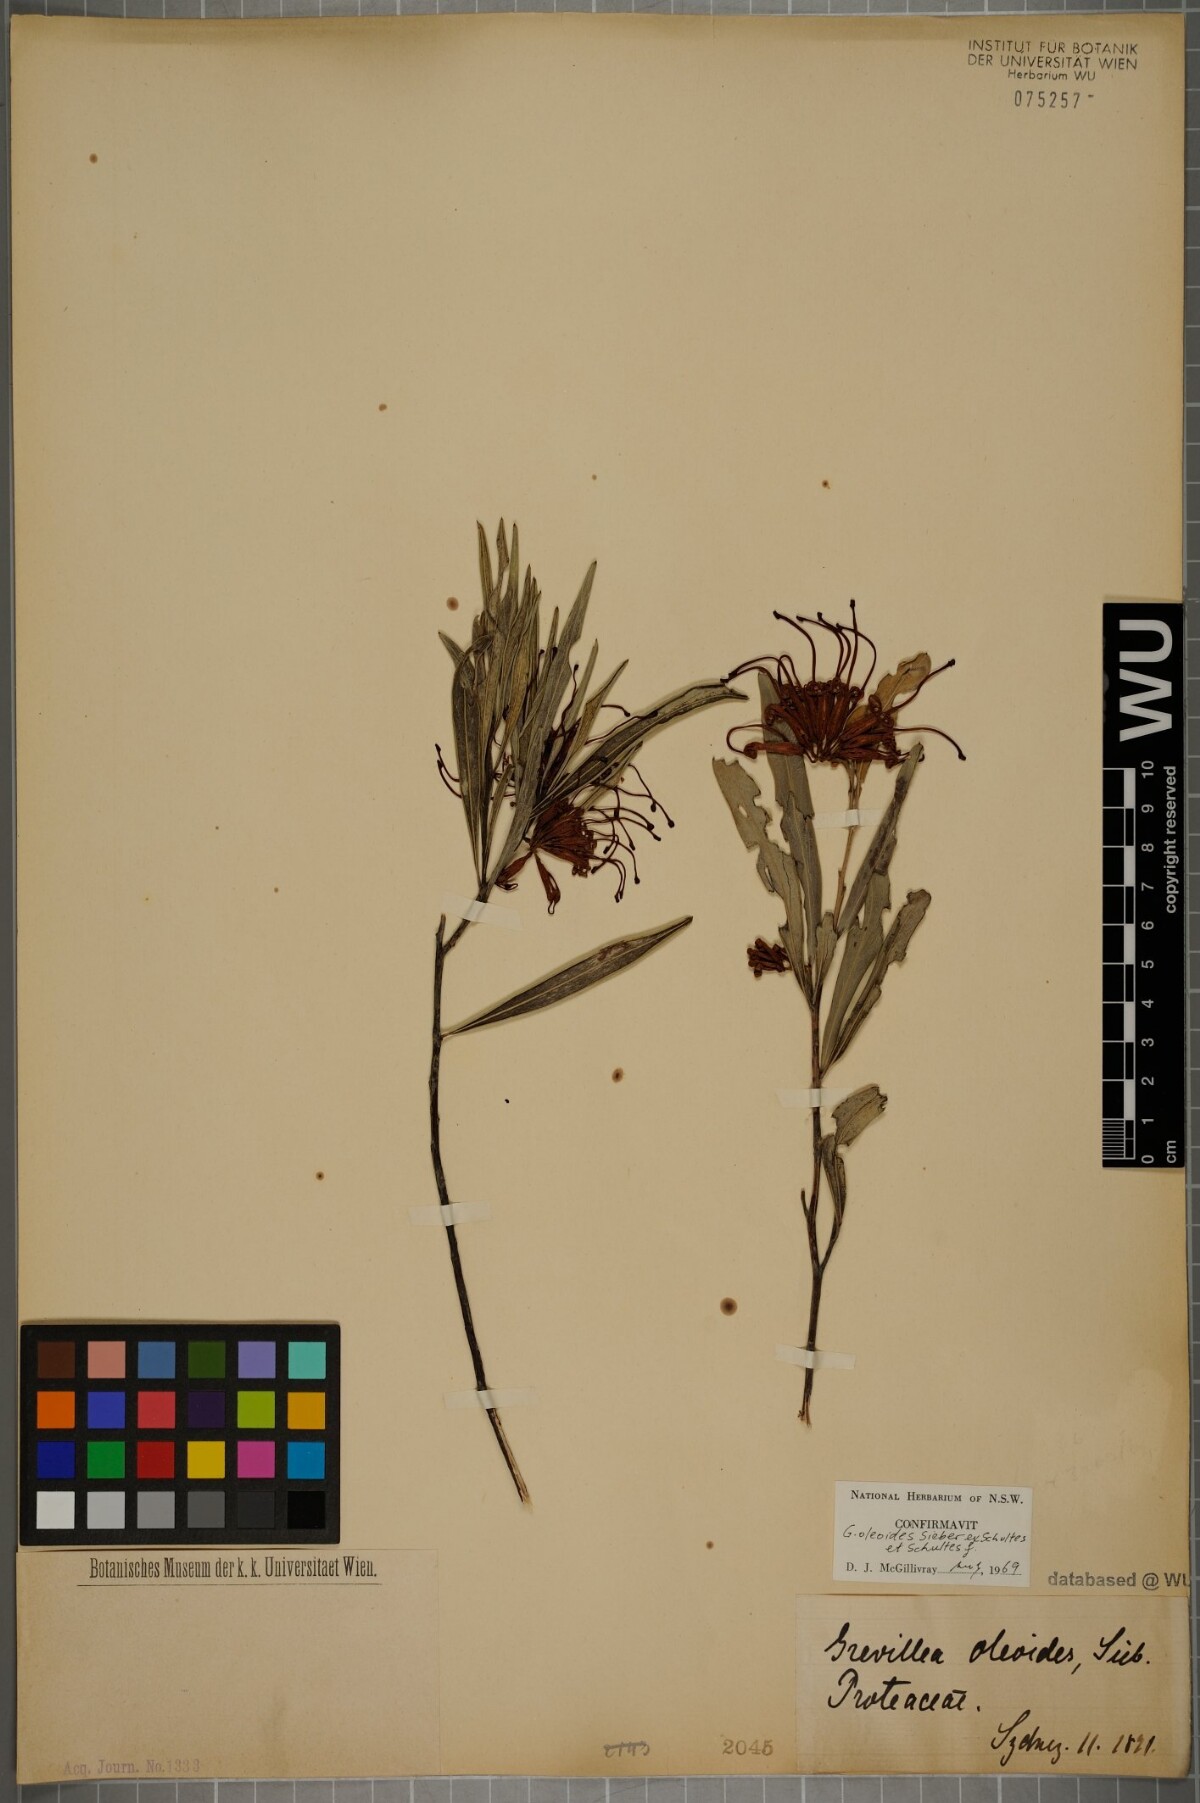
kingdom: Plantae
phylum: Tracheophyta
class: Magnoliopsida
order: Proteales
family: Proteaceae
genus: Grevillea
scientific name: Grevillea oleoides
